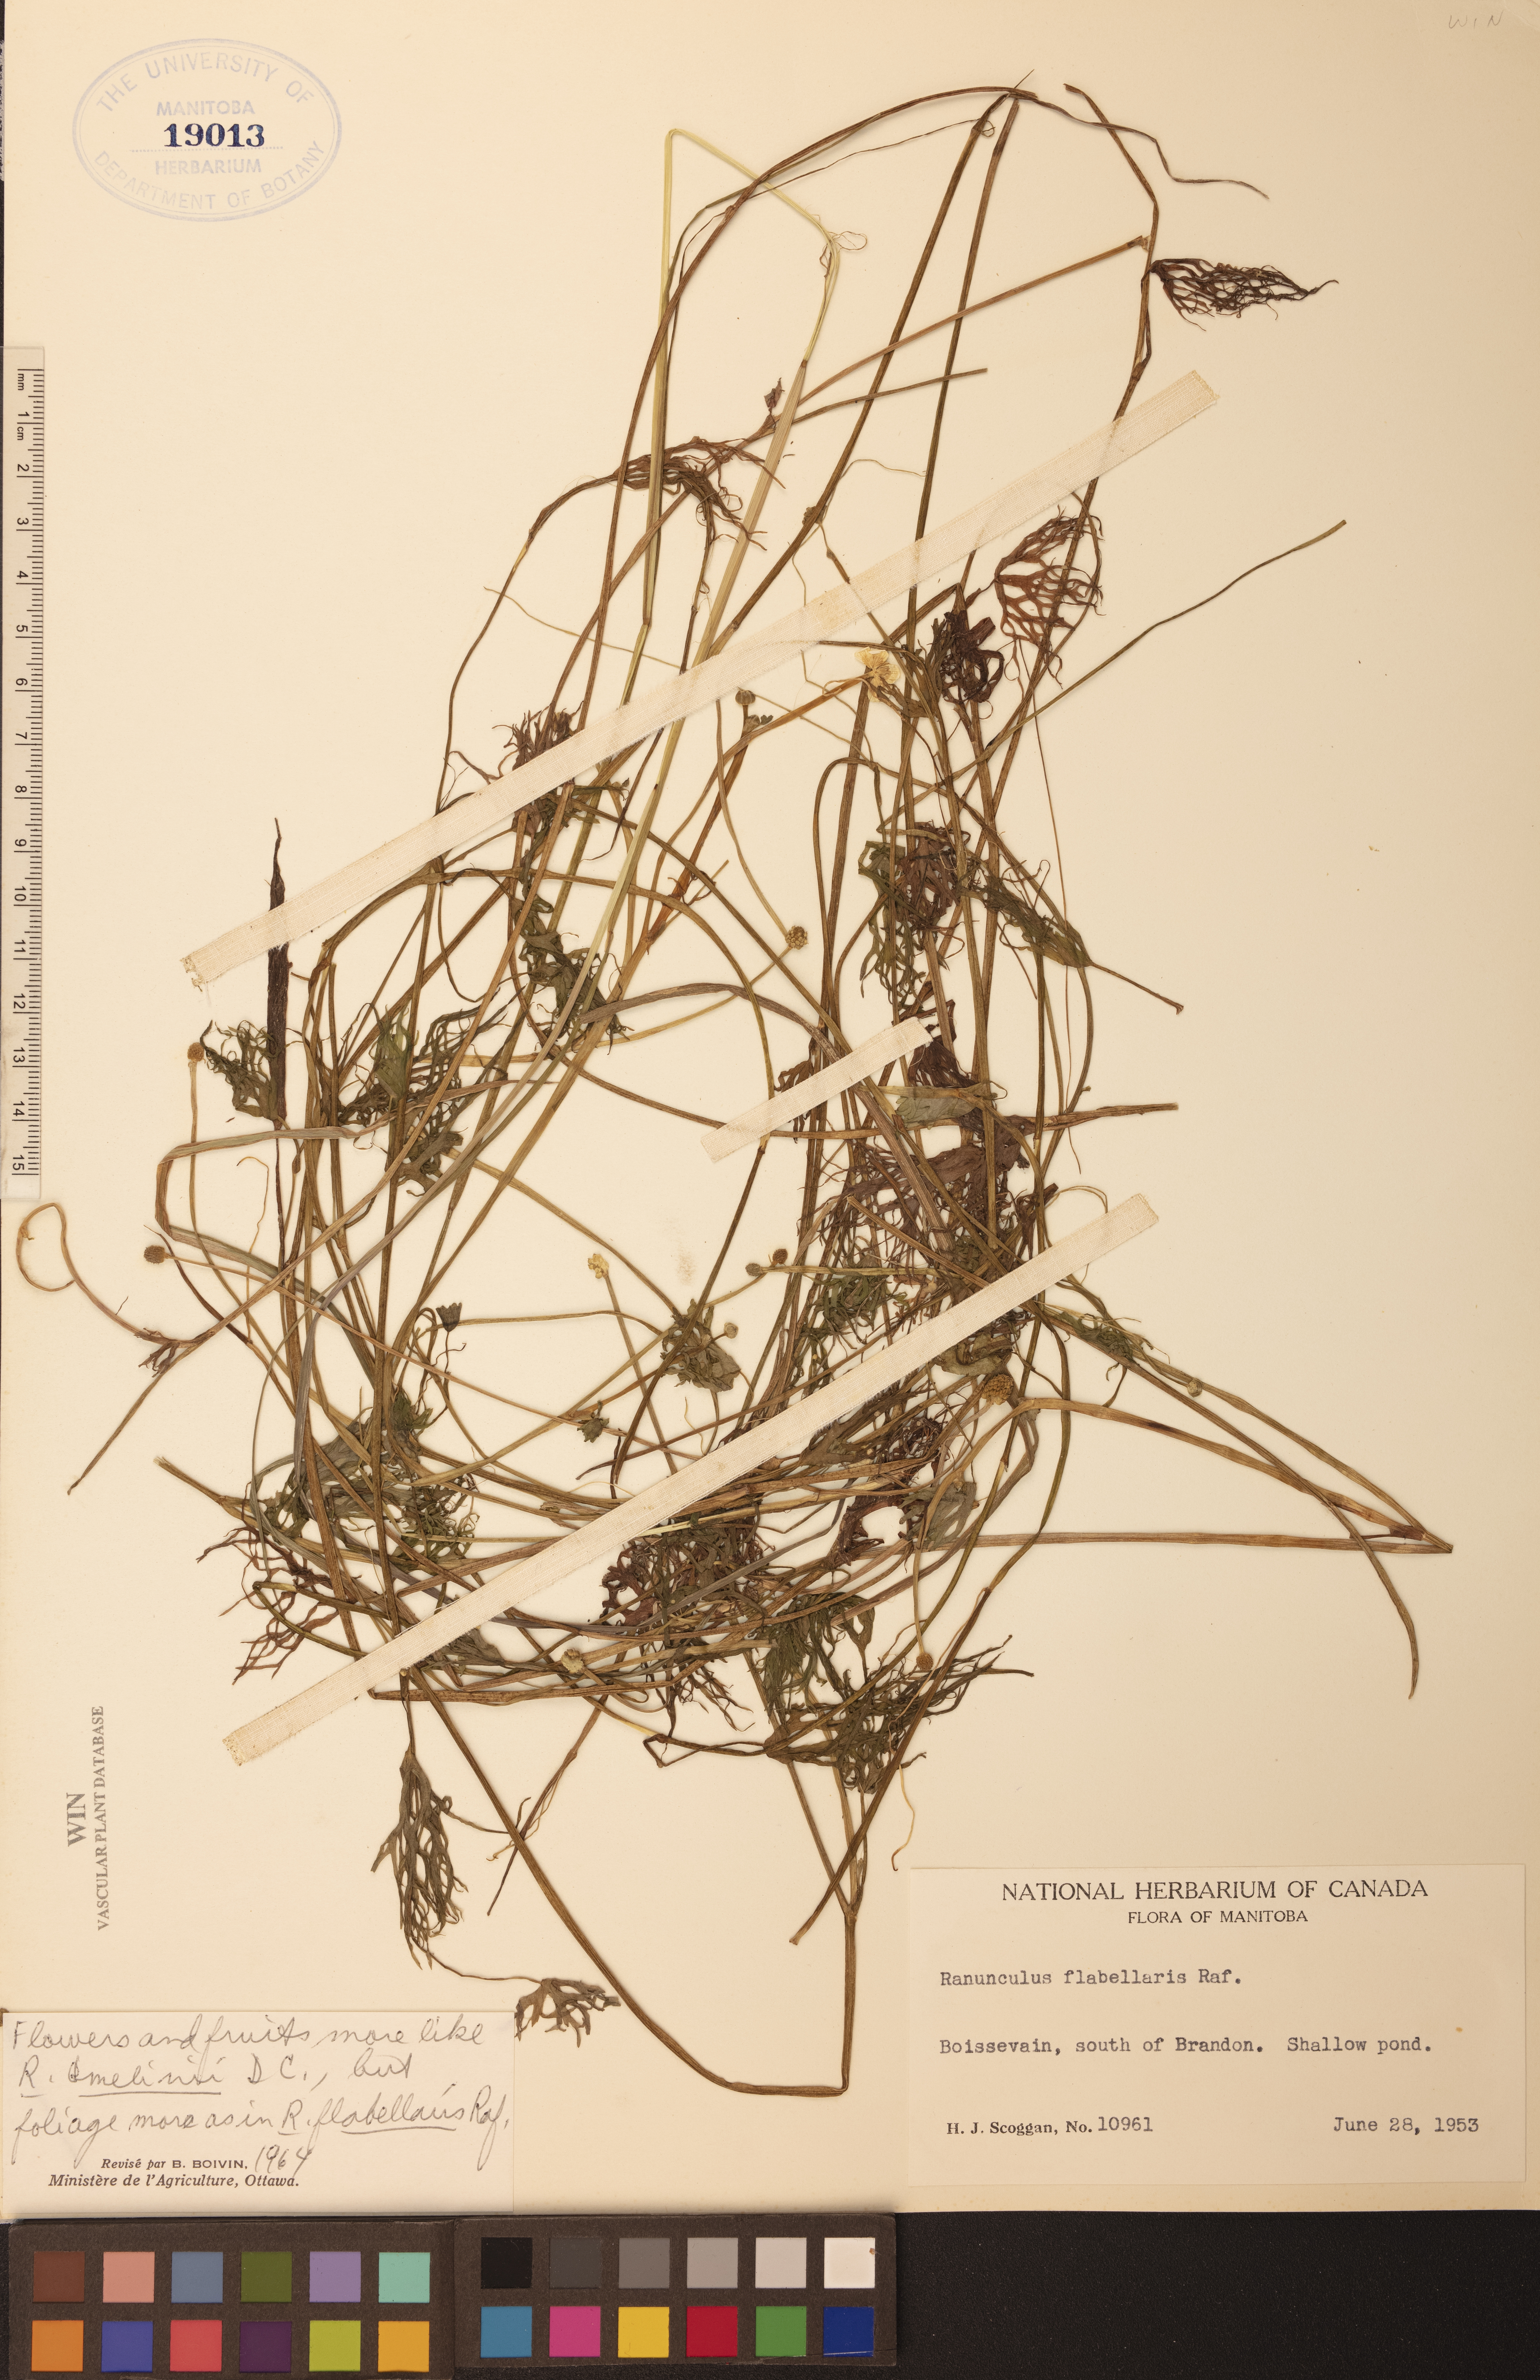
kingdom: Plantae
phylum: Tracheophyta
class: Magnoliopsida
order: Ranunculales
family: Ranunculaceae
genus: Ranunculus
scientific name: Ranunculus flabellaris
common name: Yellow water-crowfoot
